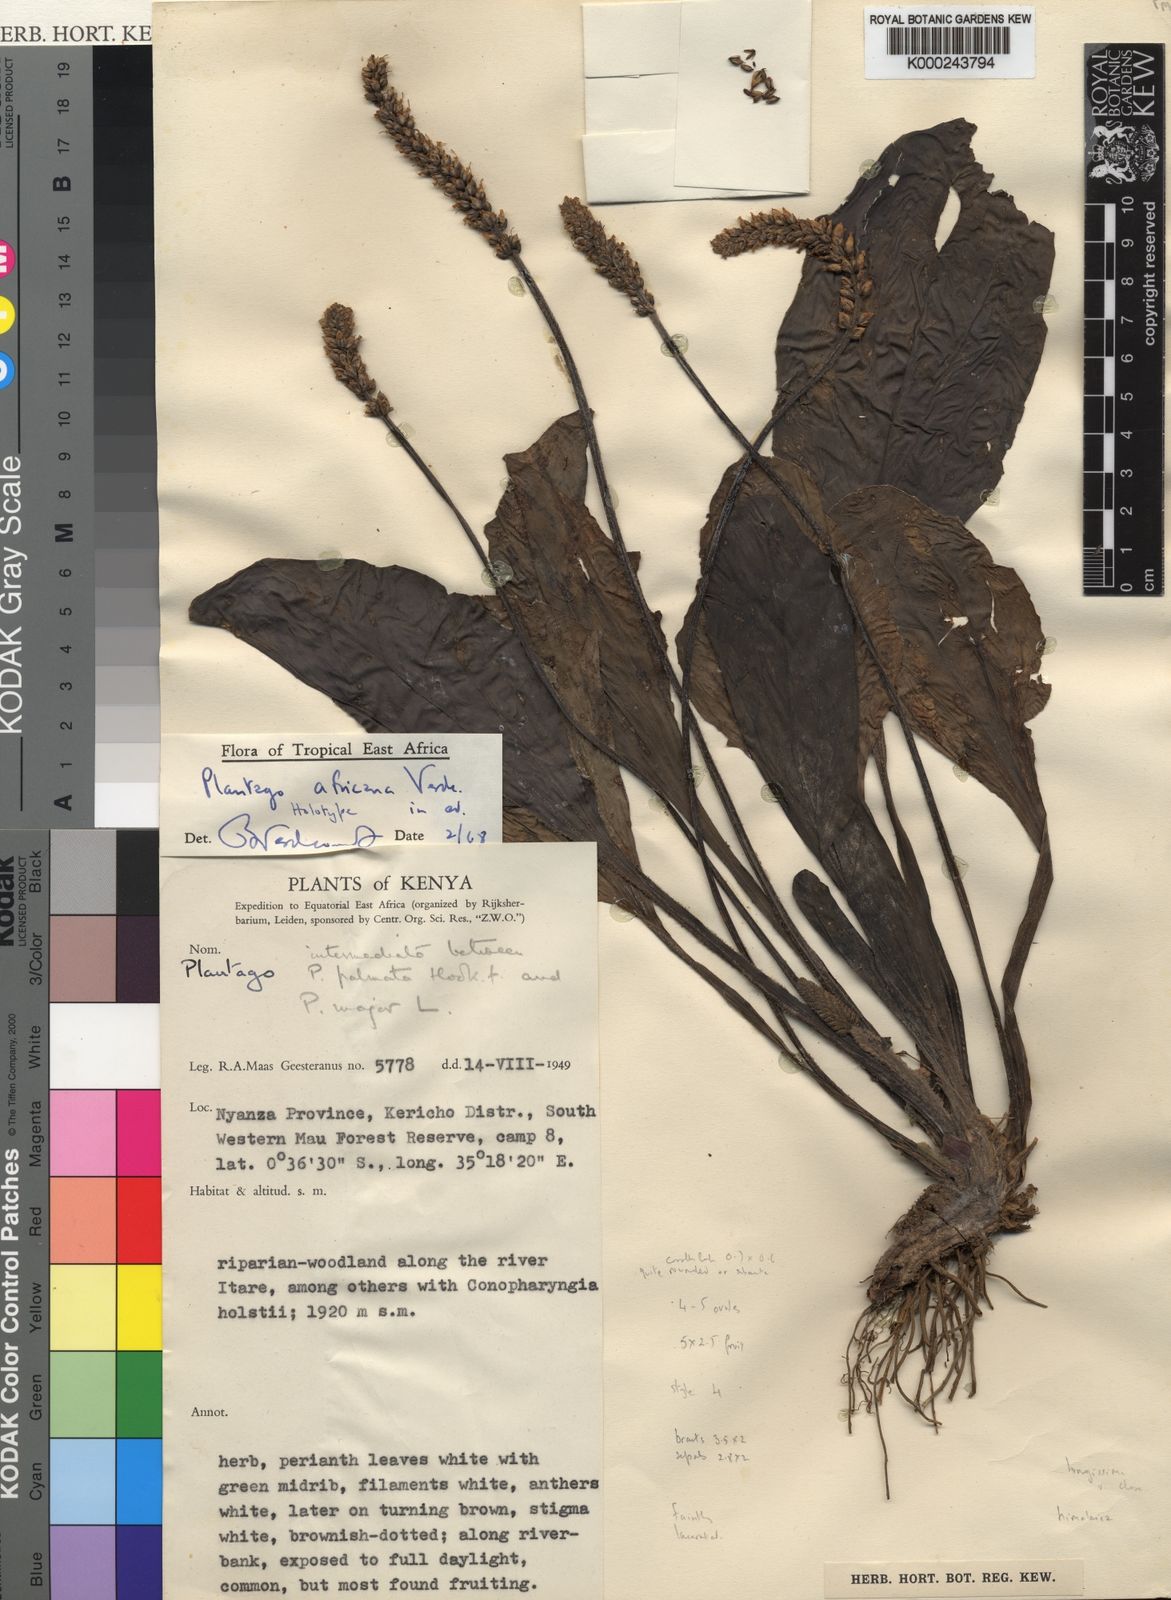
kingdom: Plantae
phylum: Tracheophyta
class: Magnoliopsida
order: Lamiales
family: Plantaginaceae
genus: Plantago
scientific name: Plantago africana
